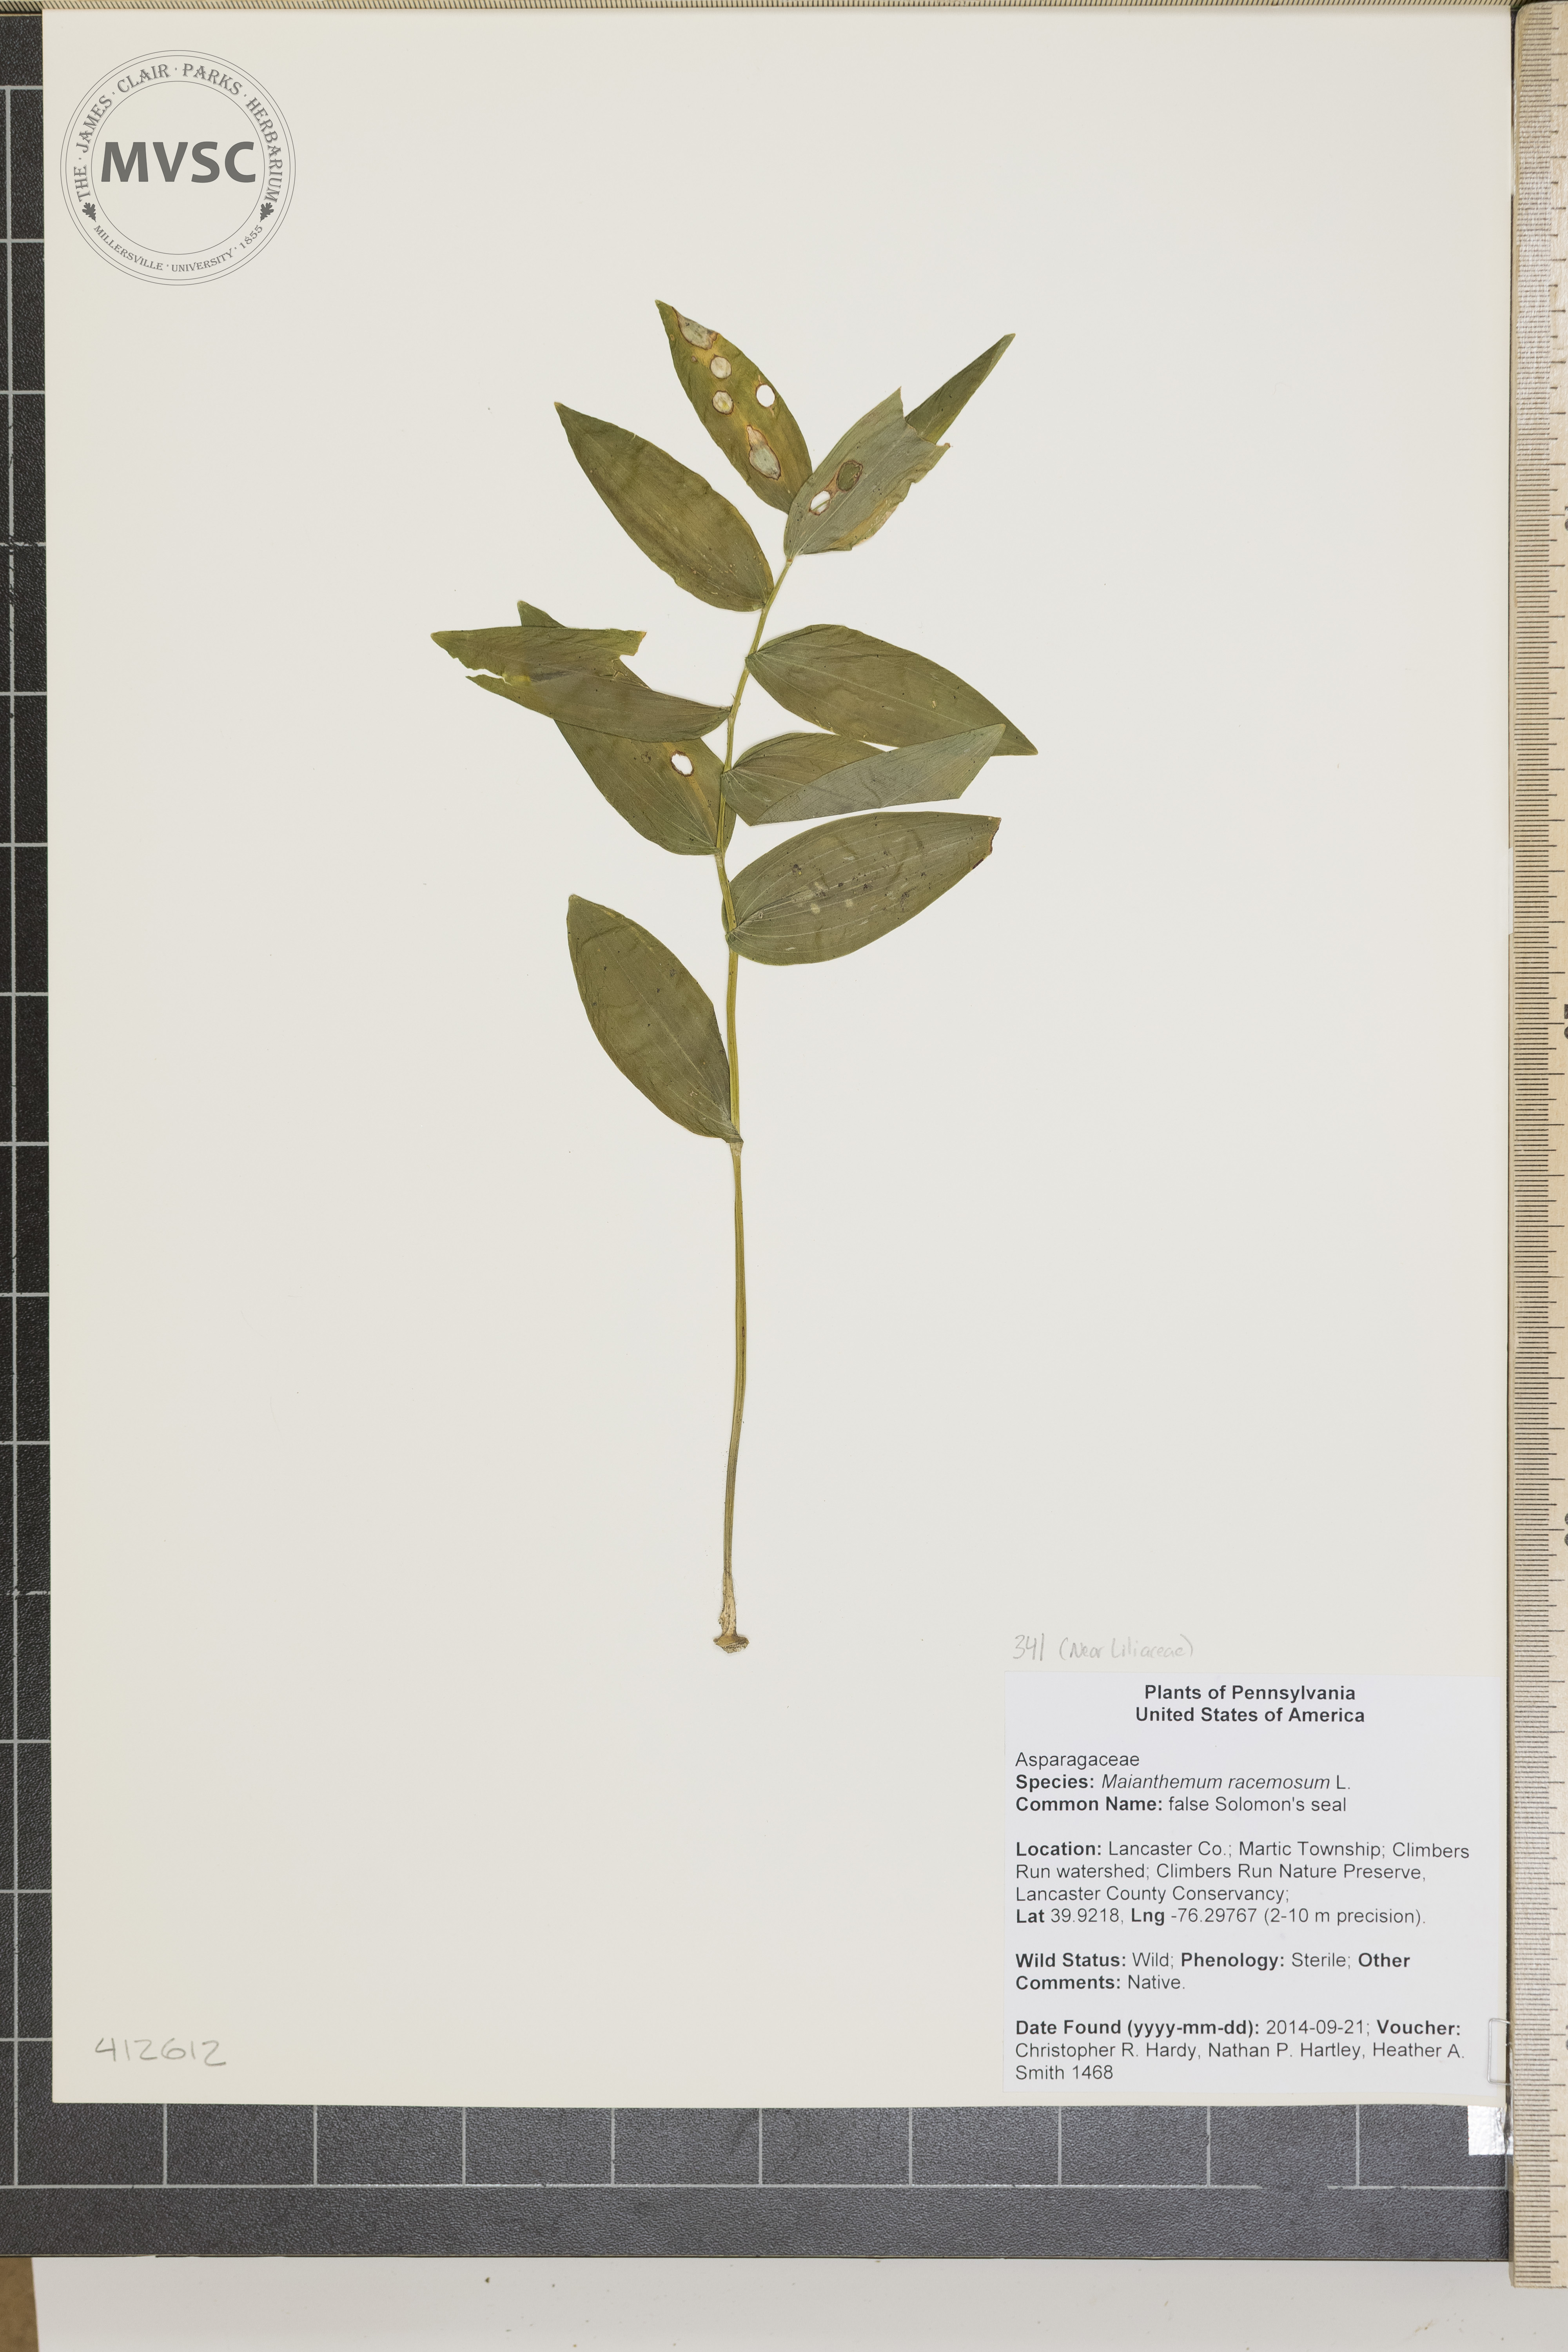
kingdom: Plantae
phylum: Tracheophyta
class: Liliopsida
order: Asparagales
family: Asparagaceae
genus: Maianthemum
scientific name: Maianthemum racemosum
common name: false Solomon's seal
